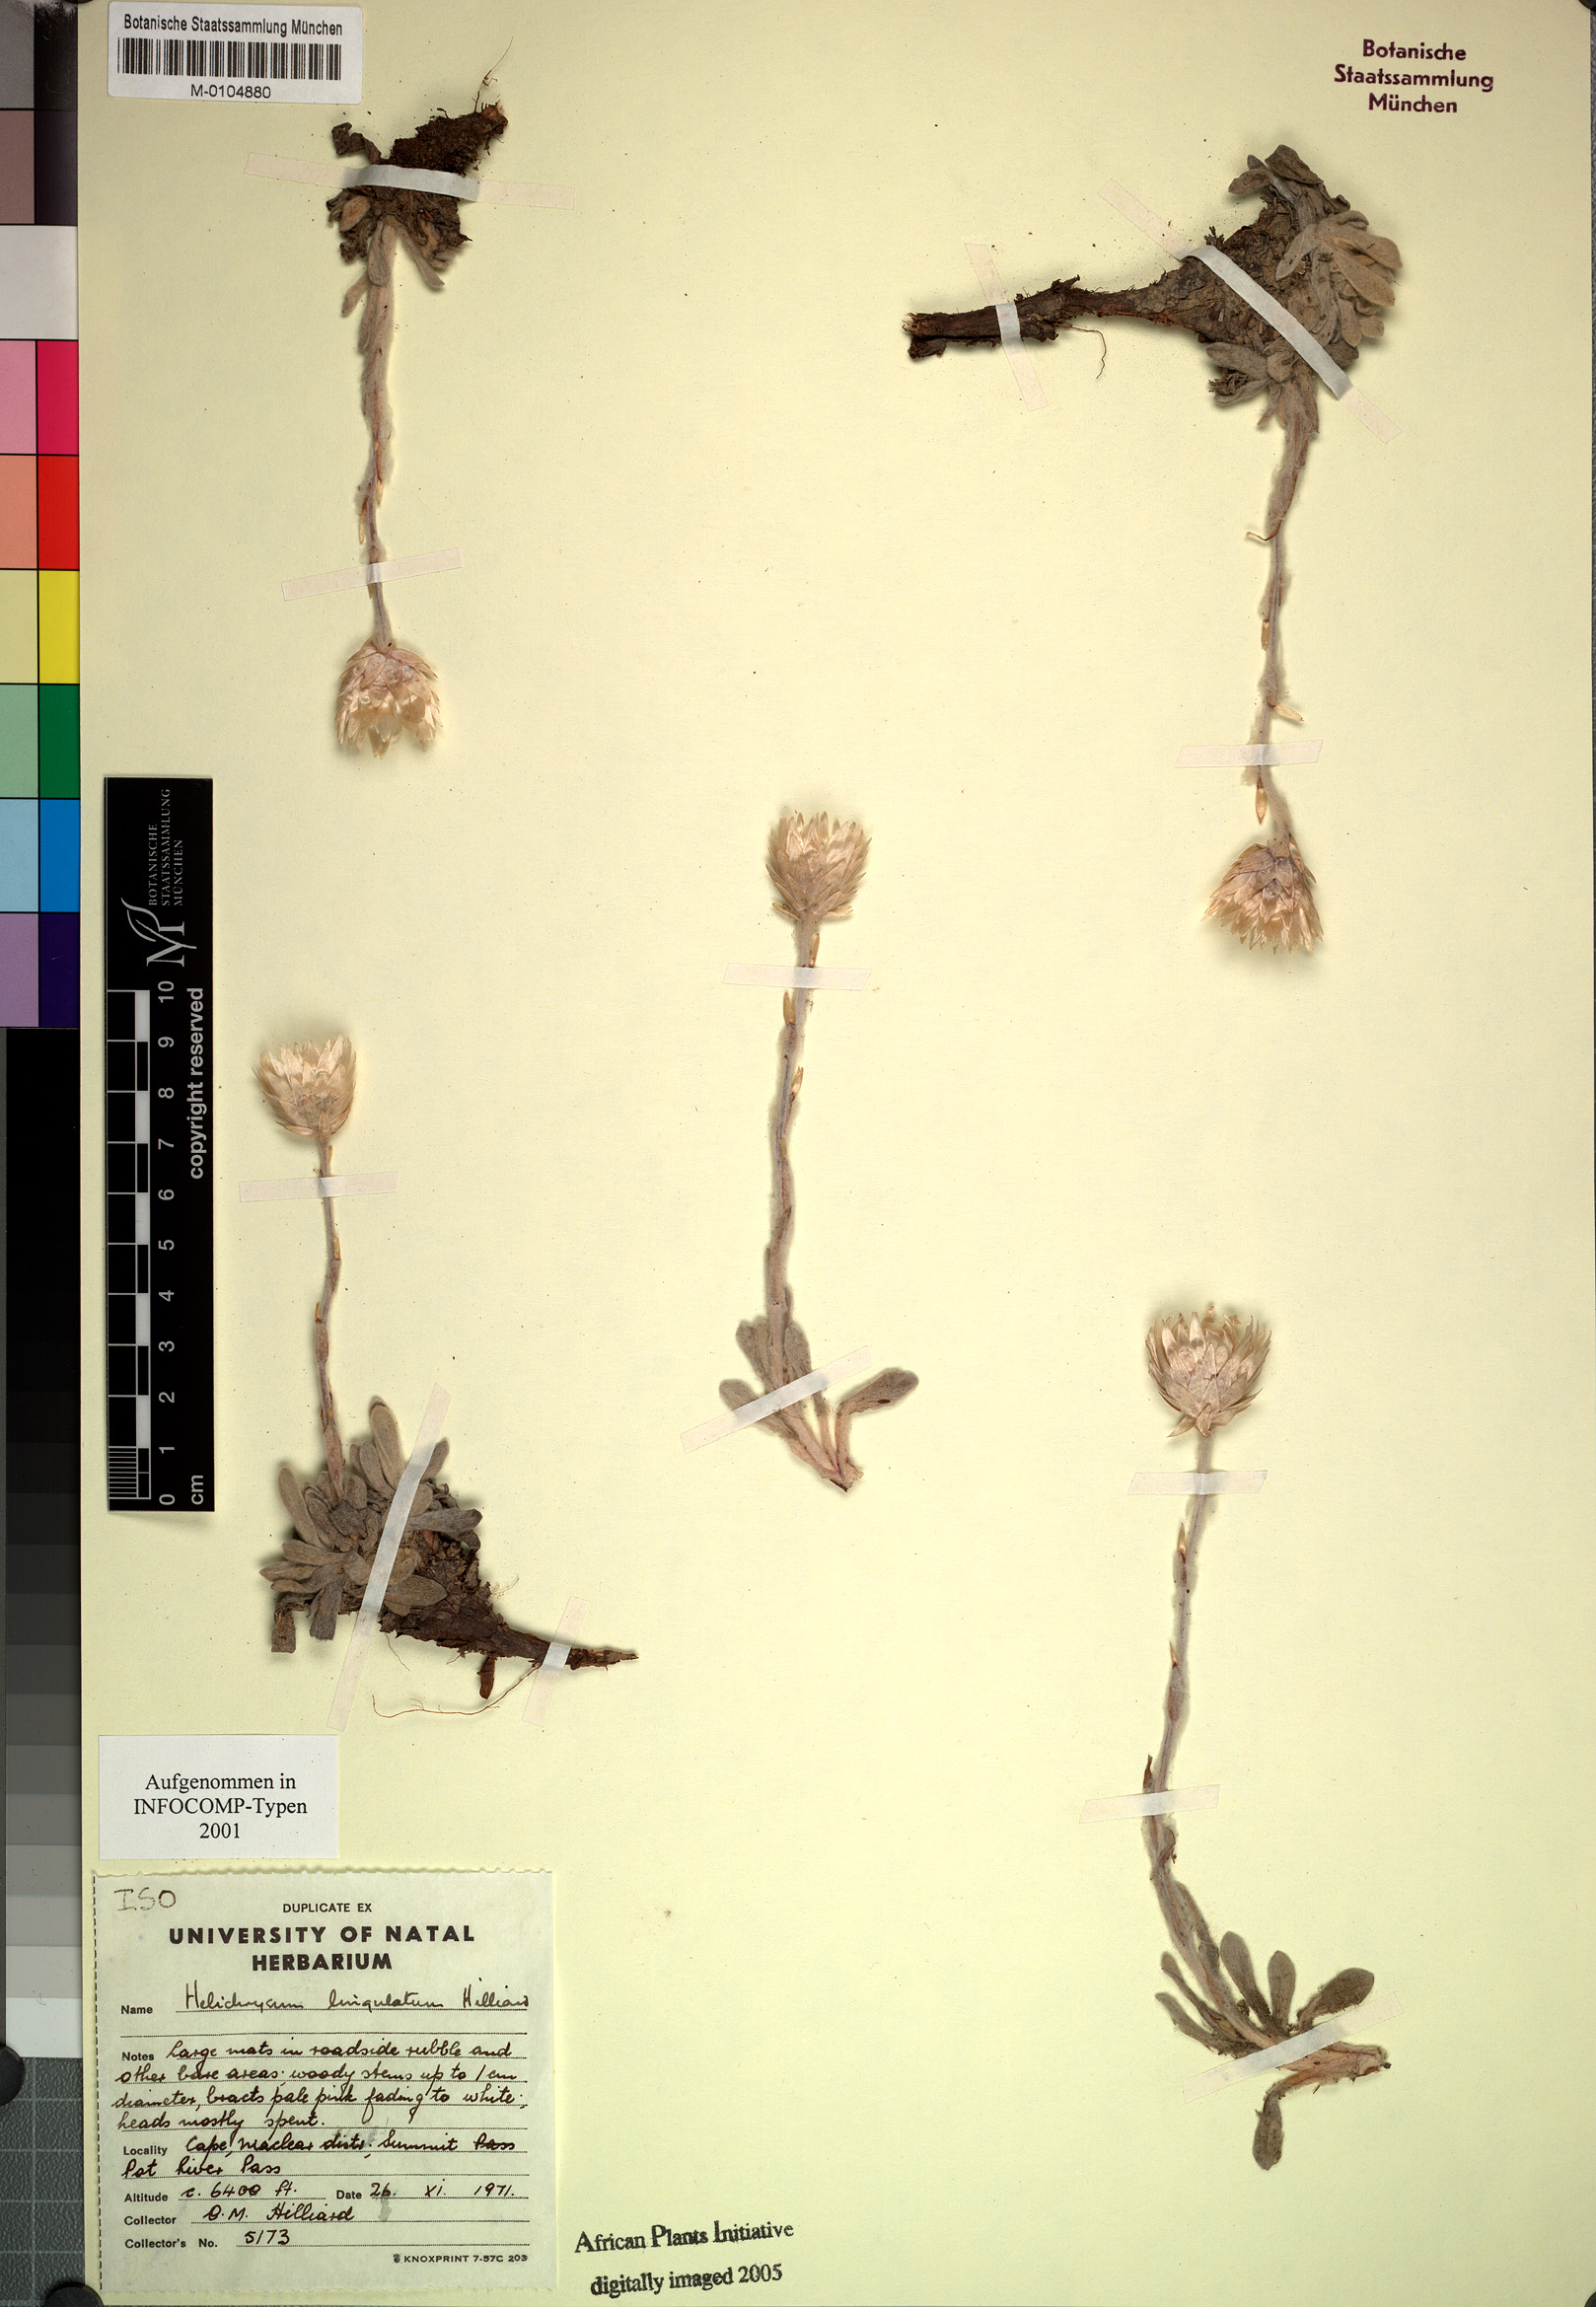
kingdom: Plantae
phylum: Tracheophyta
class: Magnoliopsida
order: Asterales
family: Asteraceae
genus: Helichrysum
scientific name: Helichrysum lingulatum
